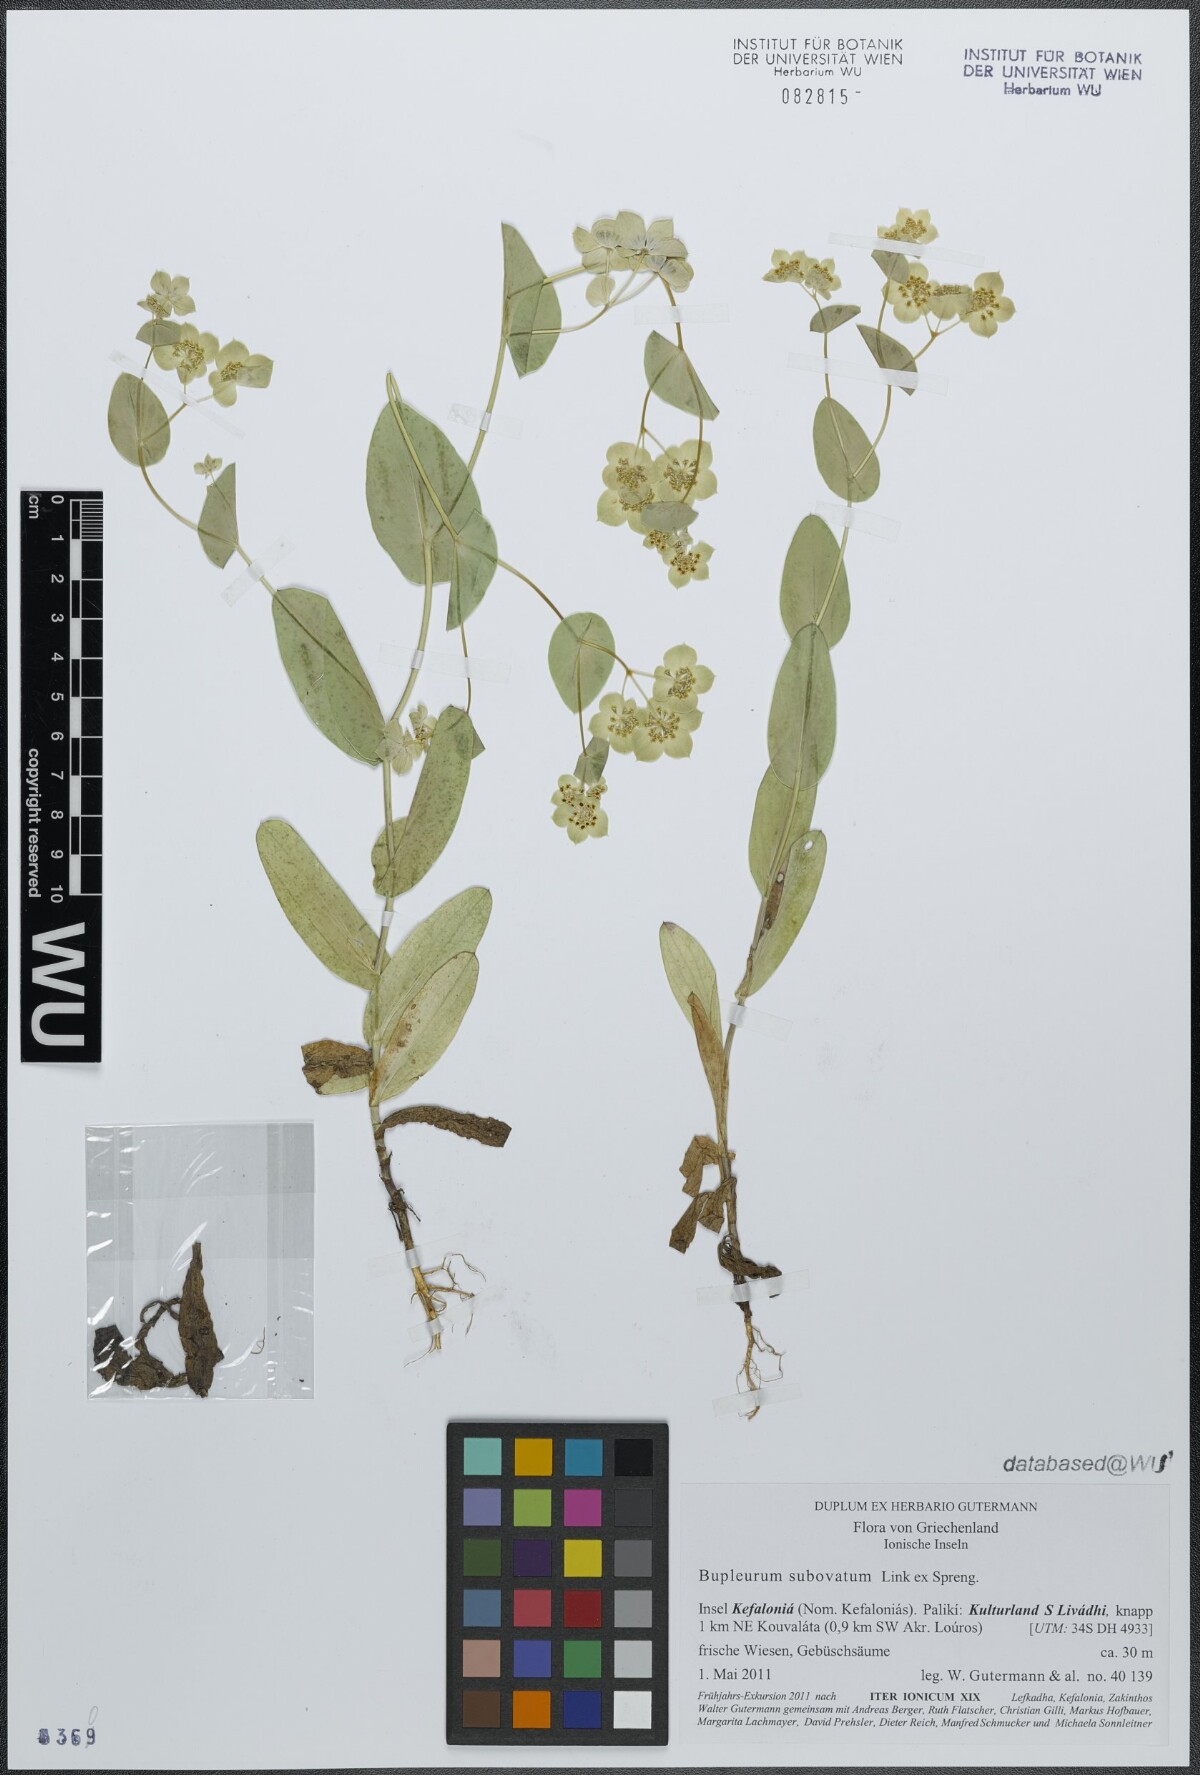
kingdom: Plantae
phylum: Tracheophyta
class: Magnoliopsida
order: Apiales
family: Apiaceae
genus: Bupleurum
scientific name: Bupleurum subovatum
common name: False thorow-wax
